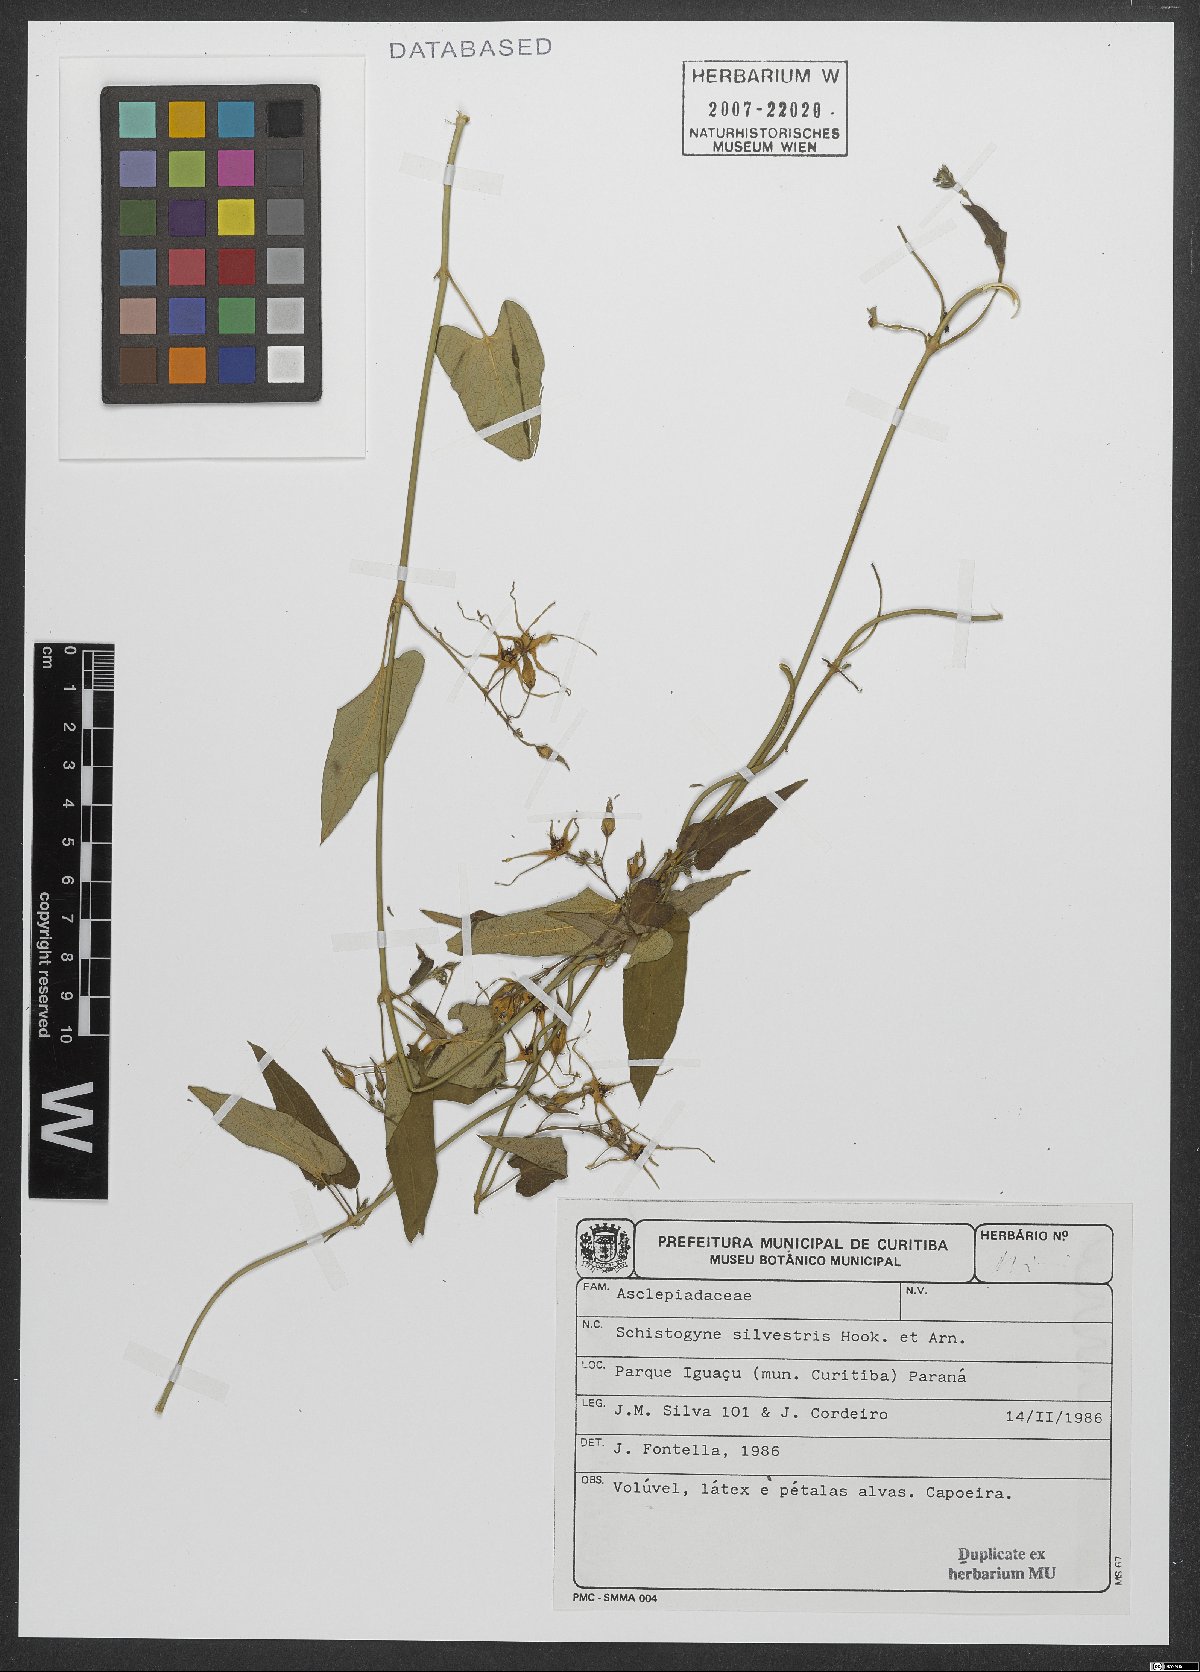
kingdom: Plantae
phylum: Tracheophyta
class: Magnoliopsida
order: Gentianales
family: Apocynaceae
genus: Oxypetalum
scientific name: Oxypetalum sylvestre
